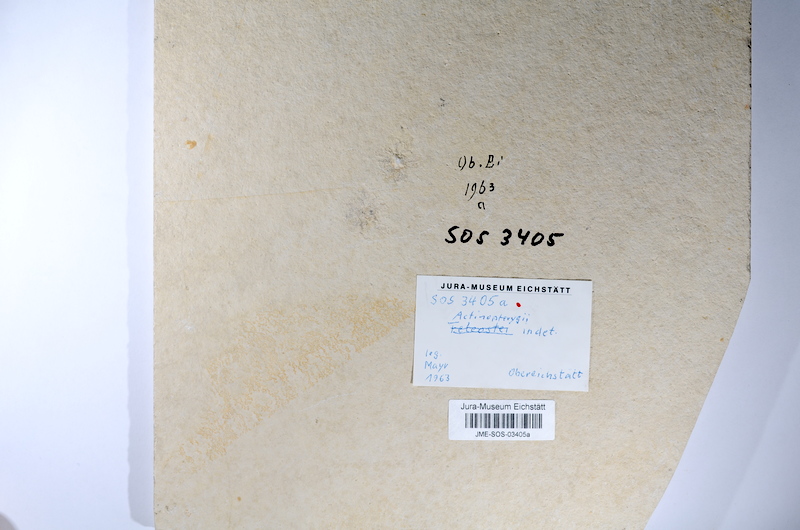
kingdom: Animalia
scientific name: Animalia
